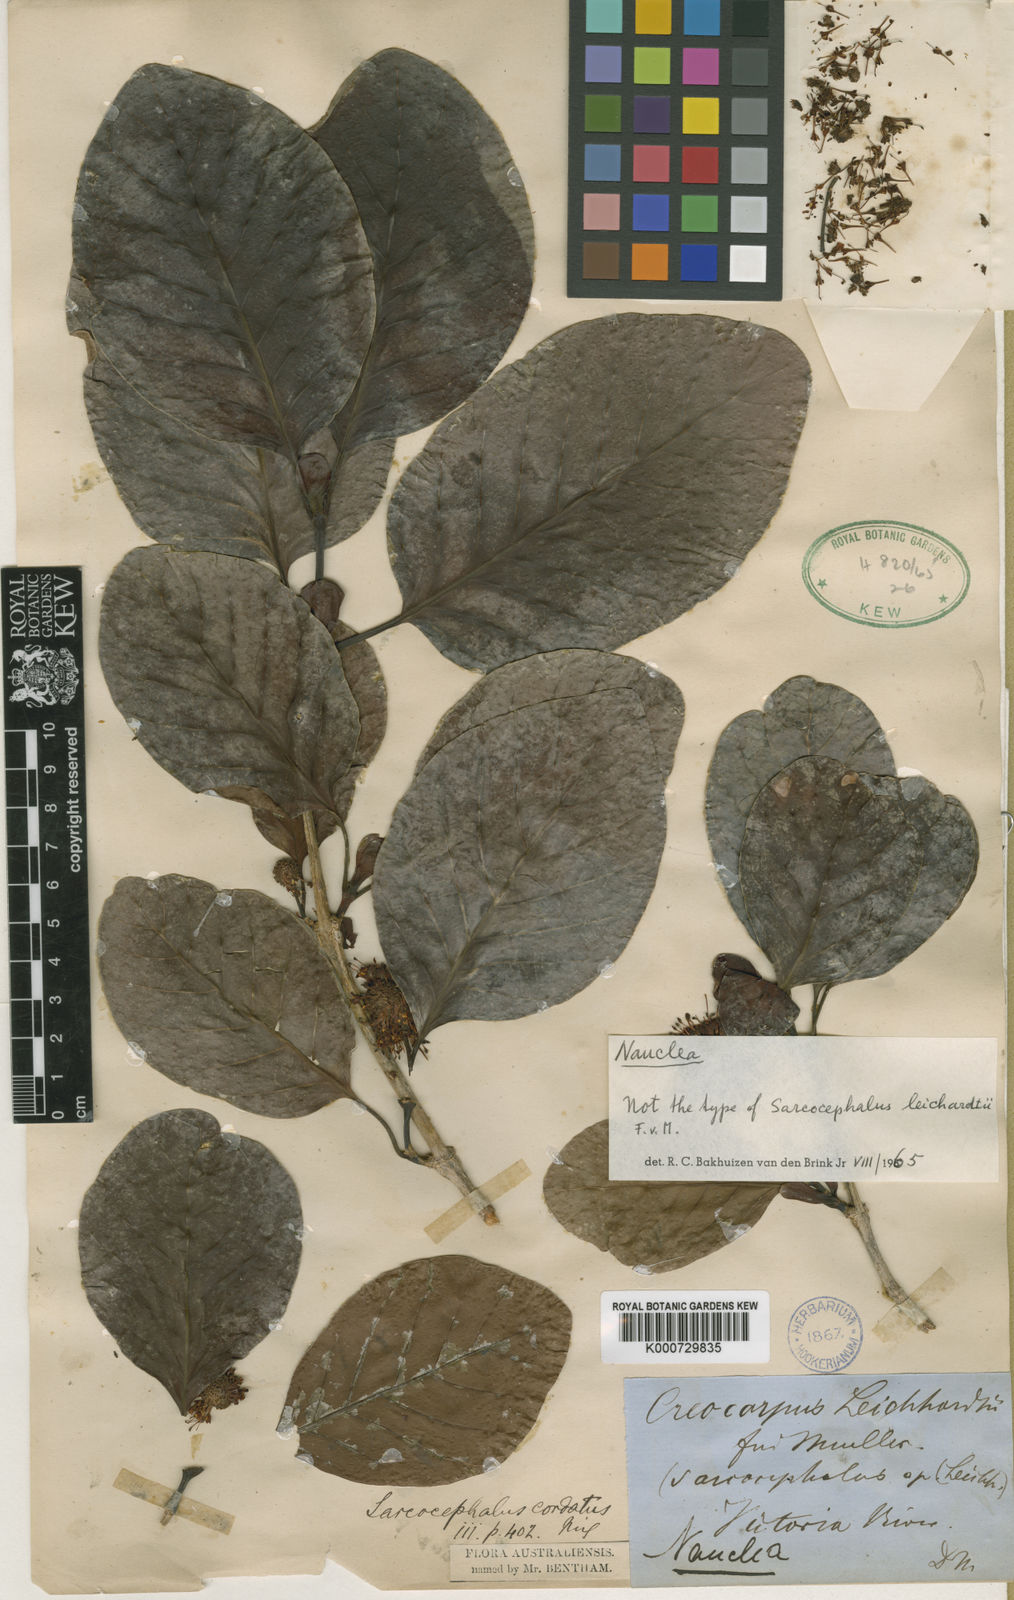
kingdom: Plantae
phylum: Tracheophyta
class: Magnoliopsida
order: Gentianales
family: Rubiaceae
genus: Nauclea
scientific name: Nauclea orientalis
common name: Leichhardt-pine
